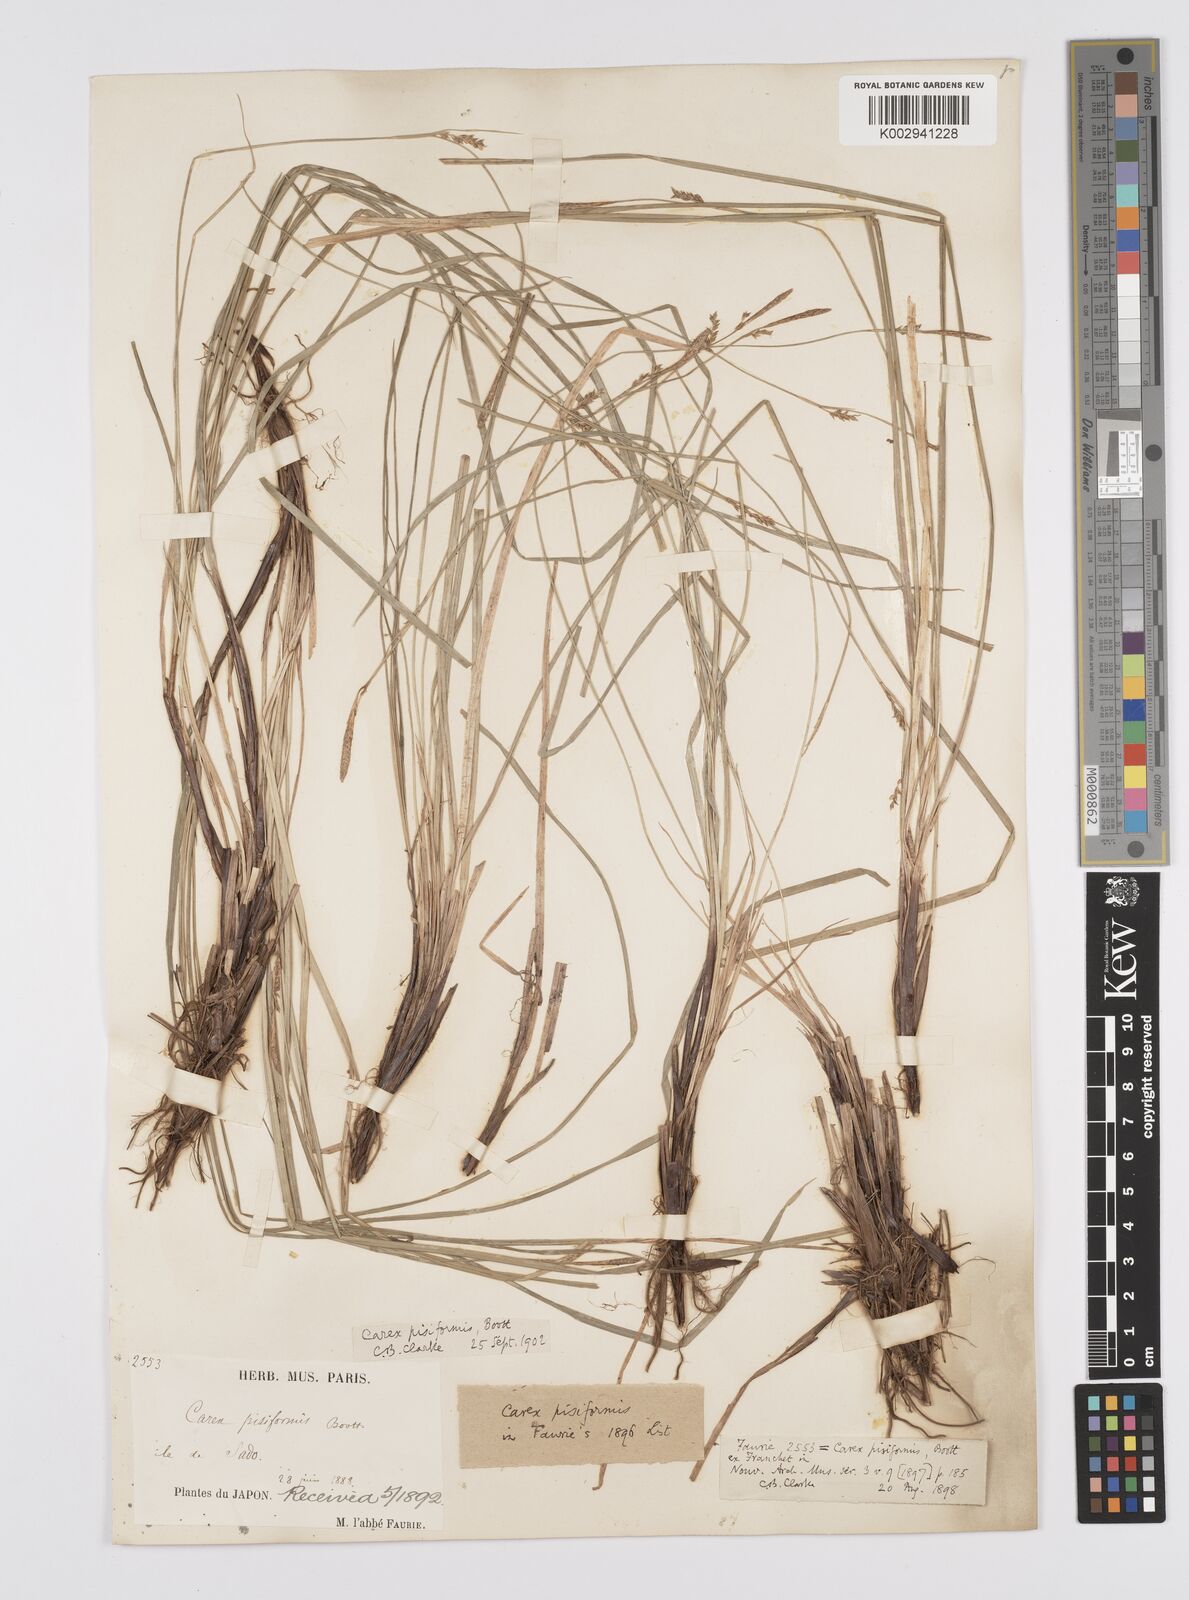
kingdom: Plantae
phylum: Tracheophyta
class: Liliopsida
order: Poales
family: Cyperaceae
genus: Carex
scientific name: Carex pisiformis
